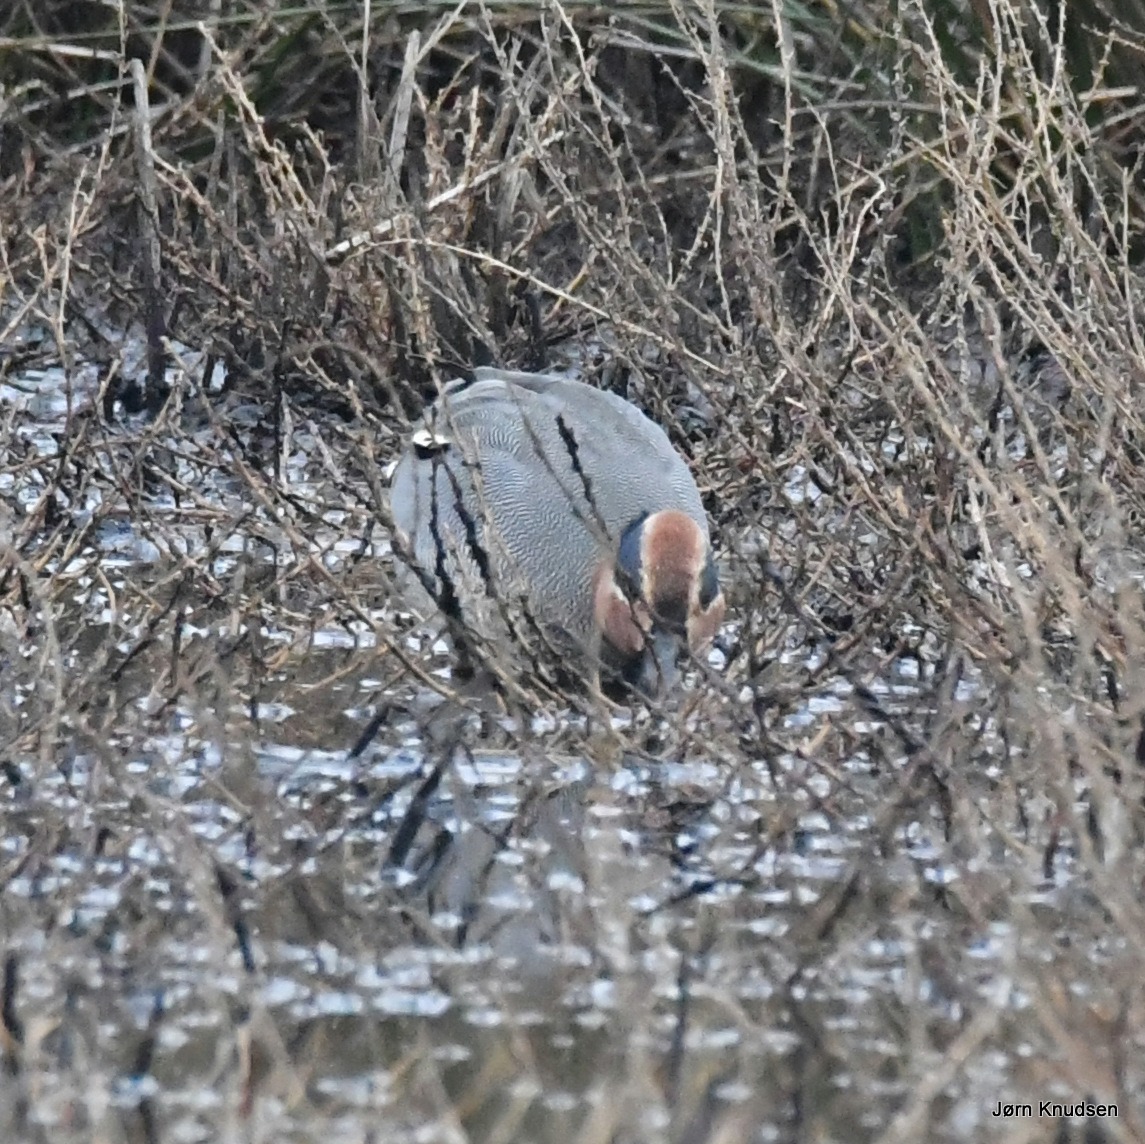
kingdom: Animalia
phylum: Chordata
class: Aves
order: Anseriformes
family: Anatidae
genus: Anas
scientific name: Anas crecca
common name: Krikand
